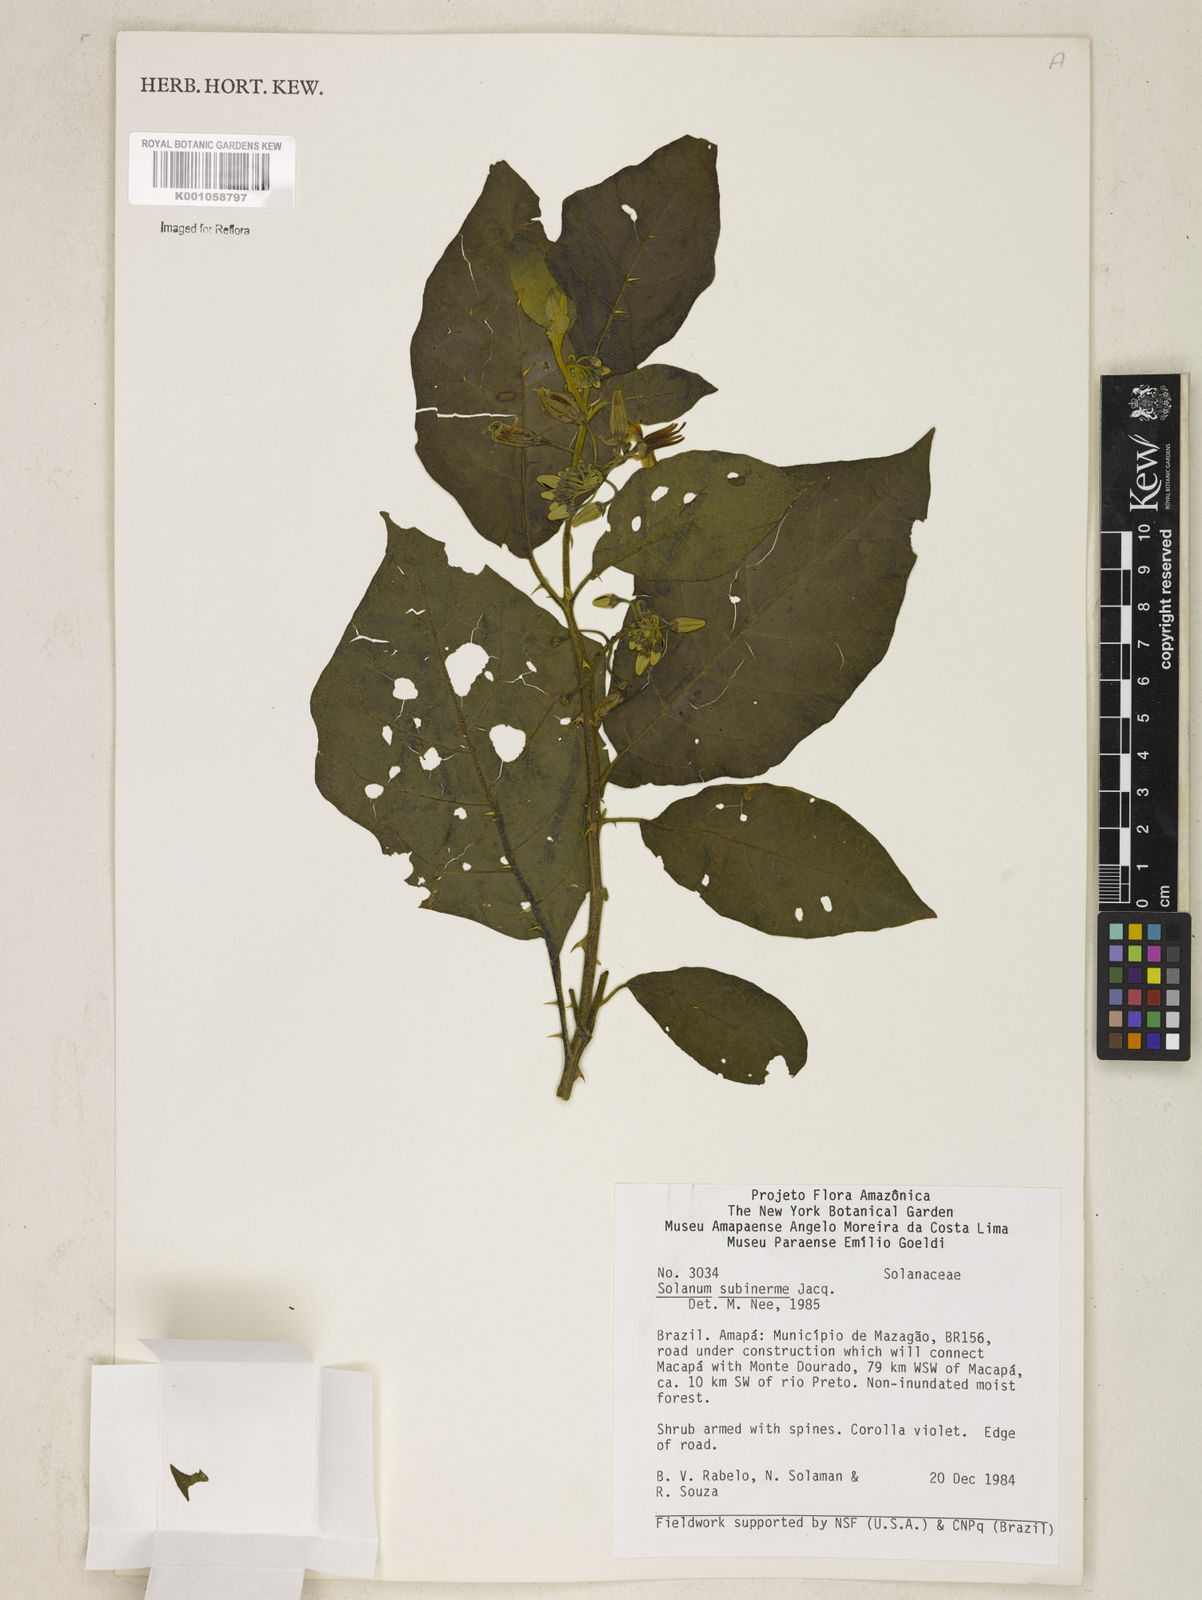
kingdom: Plantae
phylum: Tracheophyta
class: Magnoliopsida
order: Solanales
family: Solanaceae
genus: Solanum
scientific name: Solanum subinerme
